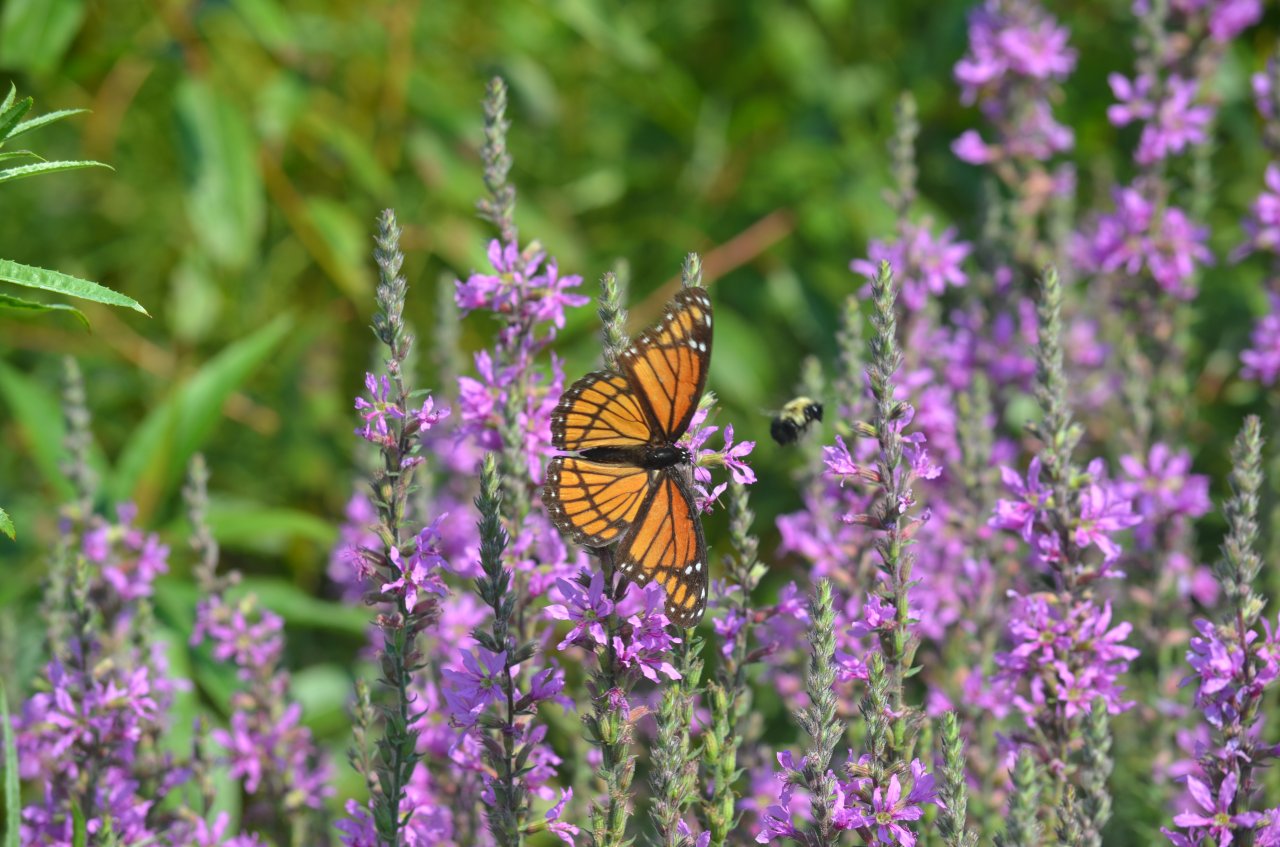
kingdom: Animalia
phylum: Arthropoda
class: Insecta
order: Lepidoptera
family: Nymphalidae
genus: Limenitis
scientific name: Limenitis archippus
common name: Viceroy
